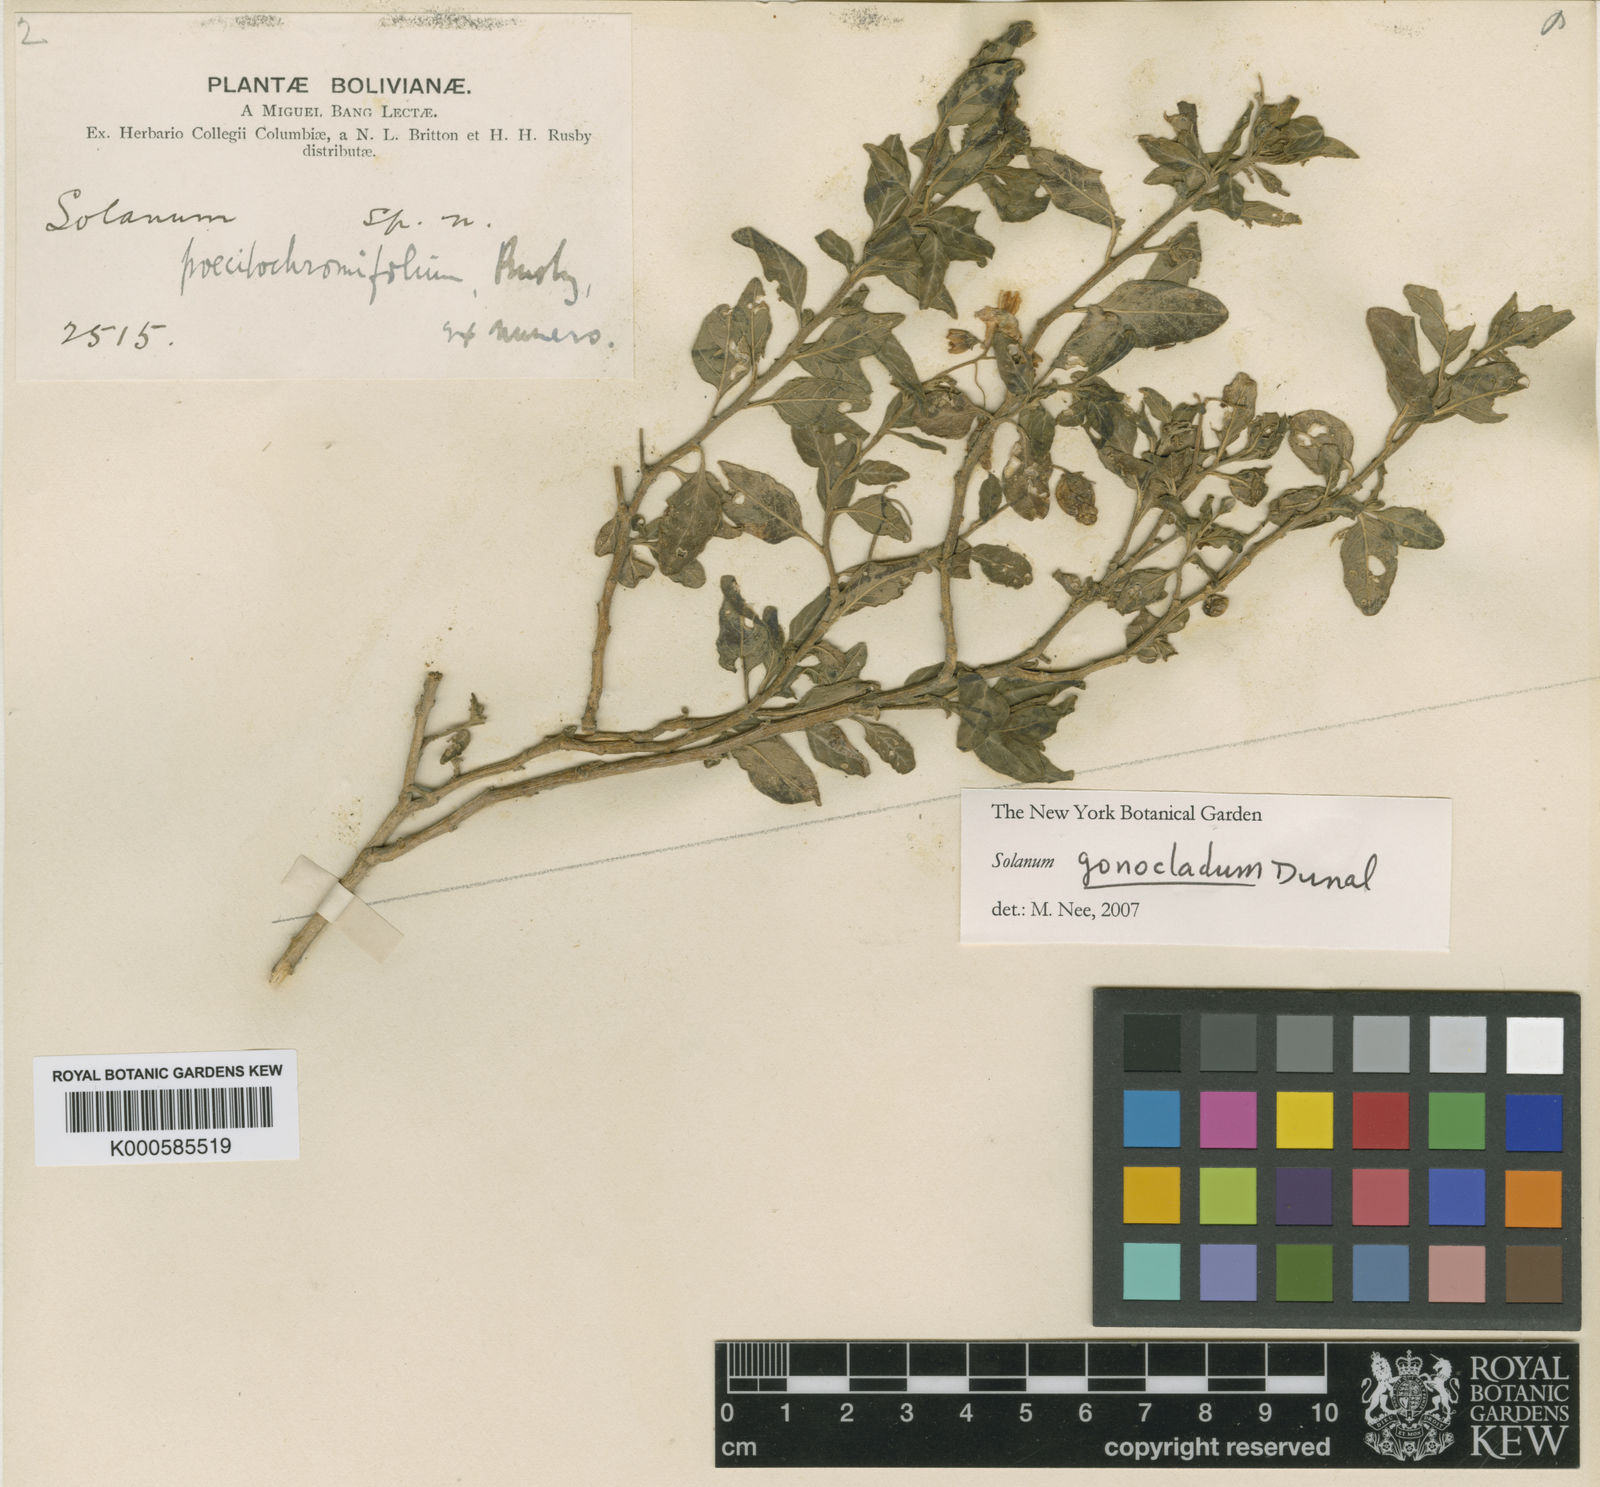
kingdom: Plantae
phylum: Tracheophyta
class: Magnoliopsida
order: Solanales
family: Solanaceae
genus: Solanum
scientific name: Solanum gonocladum
